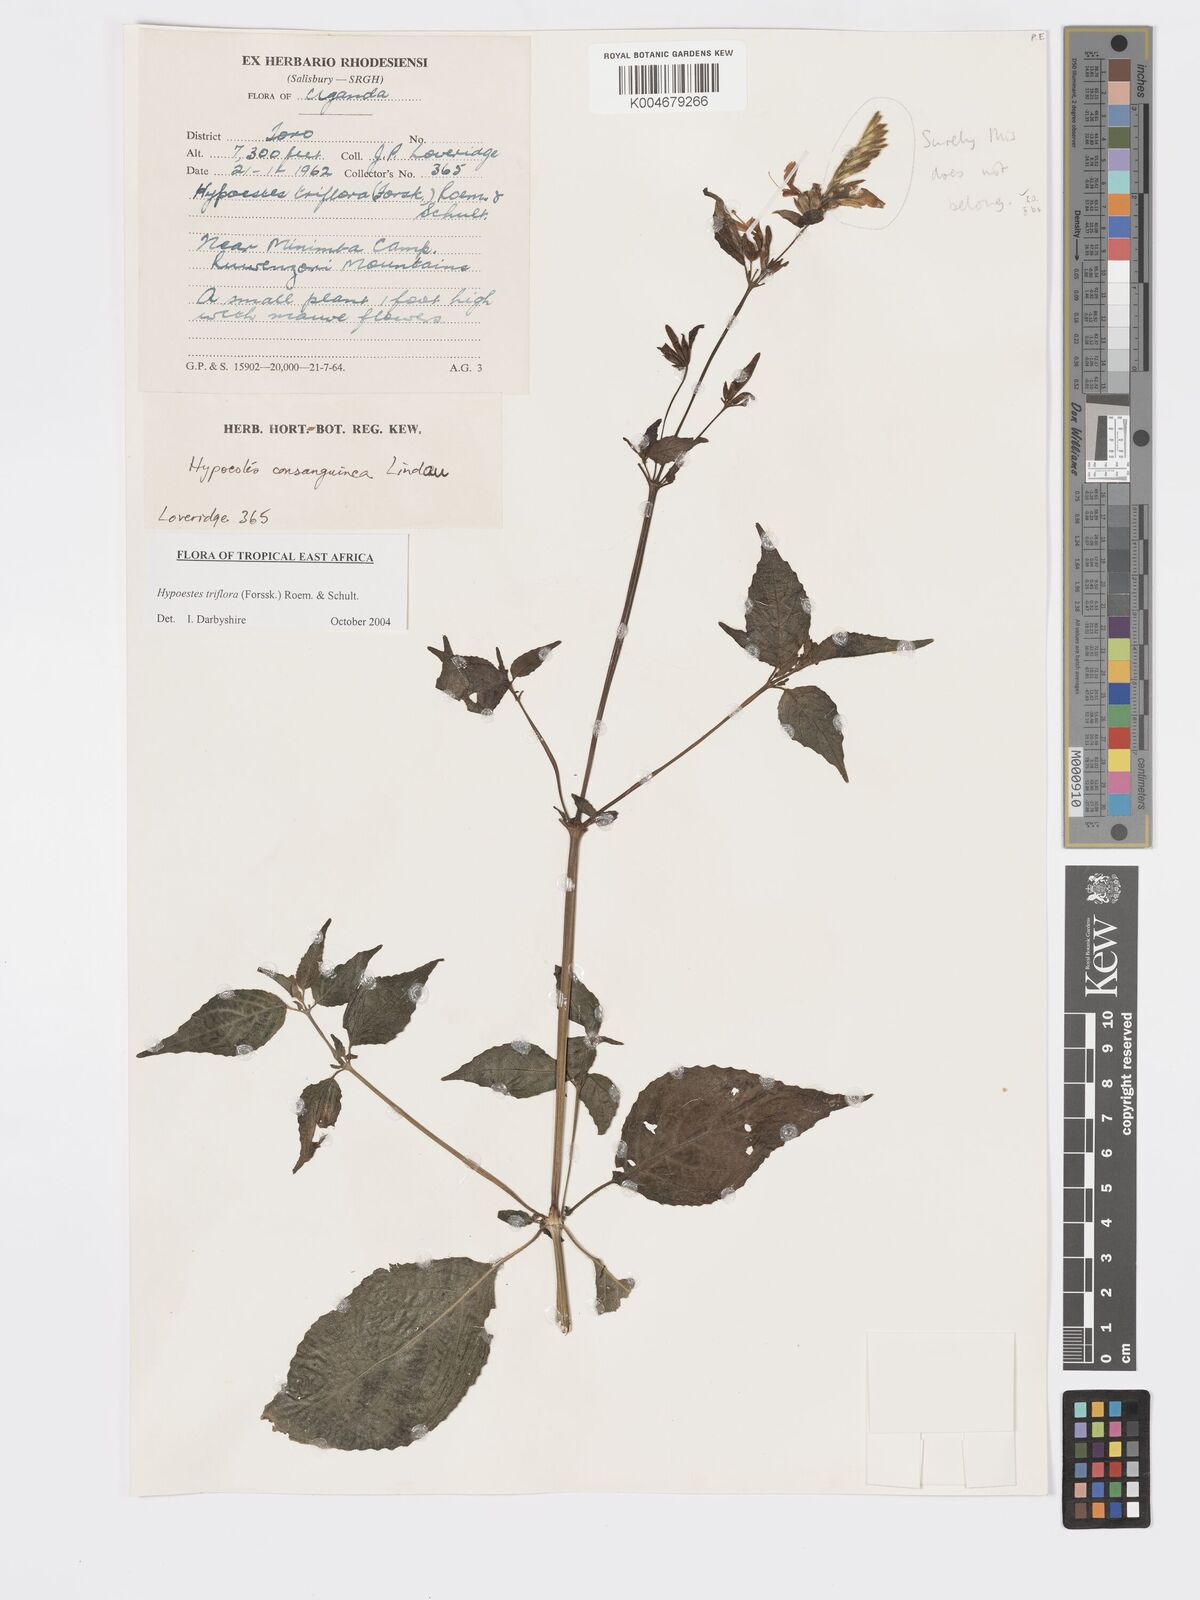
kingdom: Plantae
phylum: Tracheophyta
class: Magnoliopsida
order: Lamiales
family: Acanthaceae
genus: Hypoestes
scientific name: Hypoestes triflora
